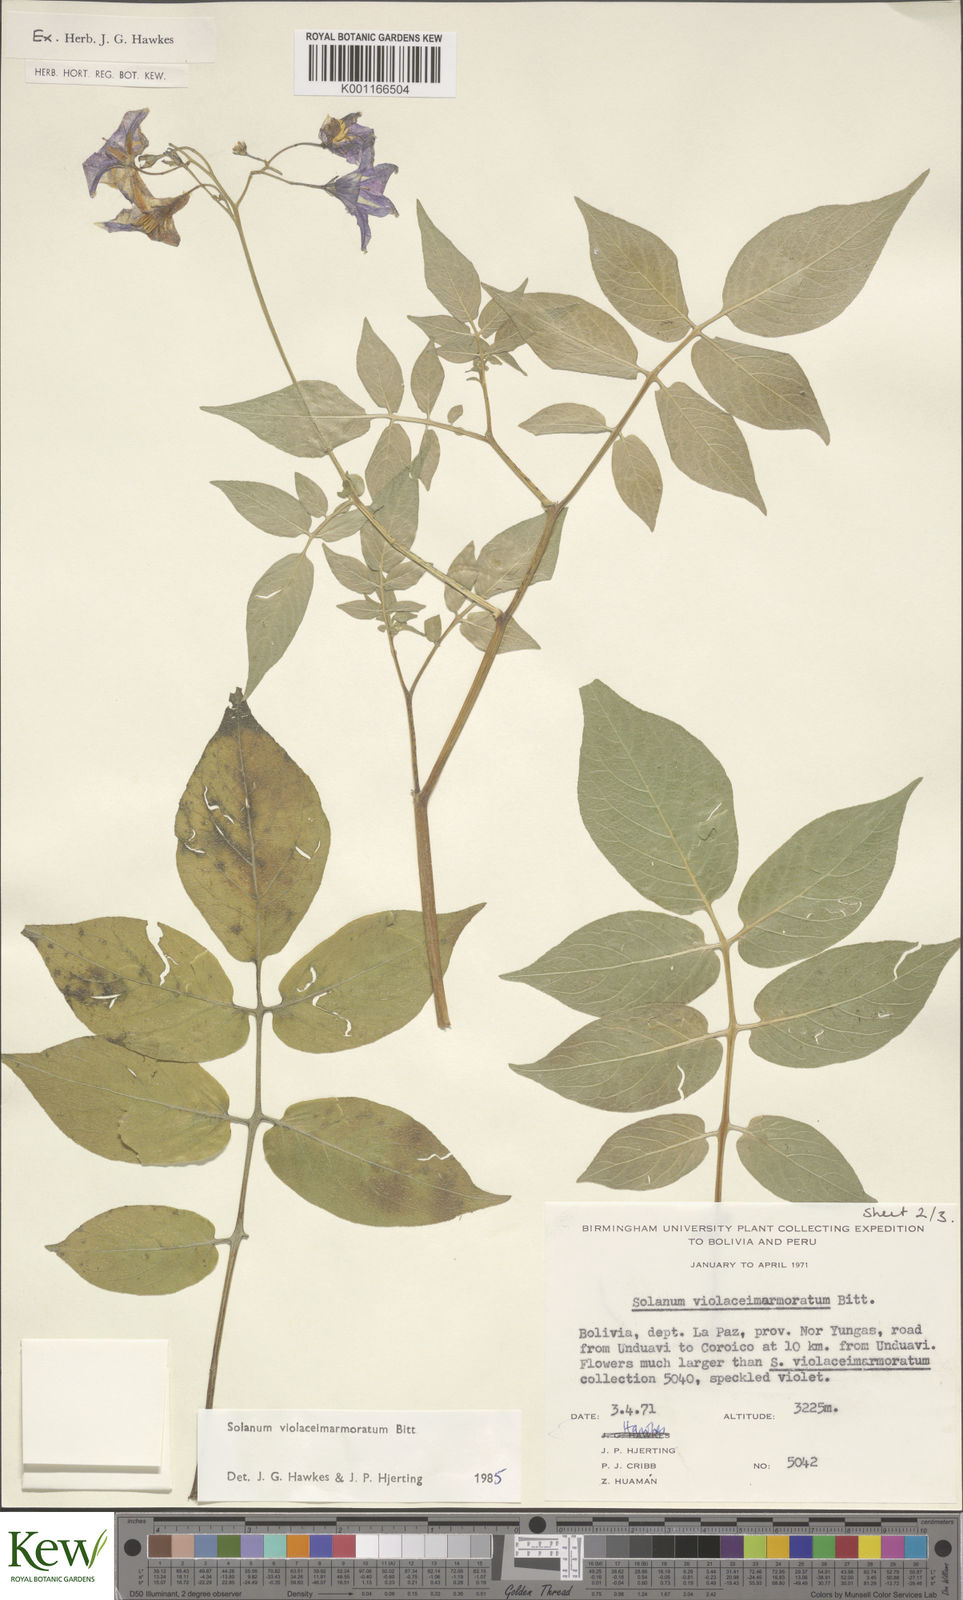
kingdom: Plantae
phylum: Tracheophyta
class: Magnoliopsida
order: Solanales
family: Solanaceae
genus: Solanum
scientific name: Solanum violaceimarmoratum
